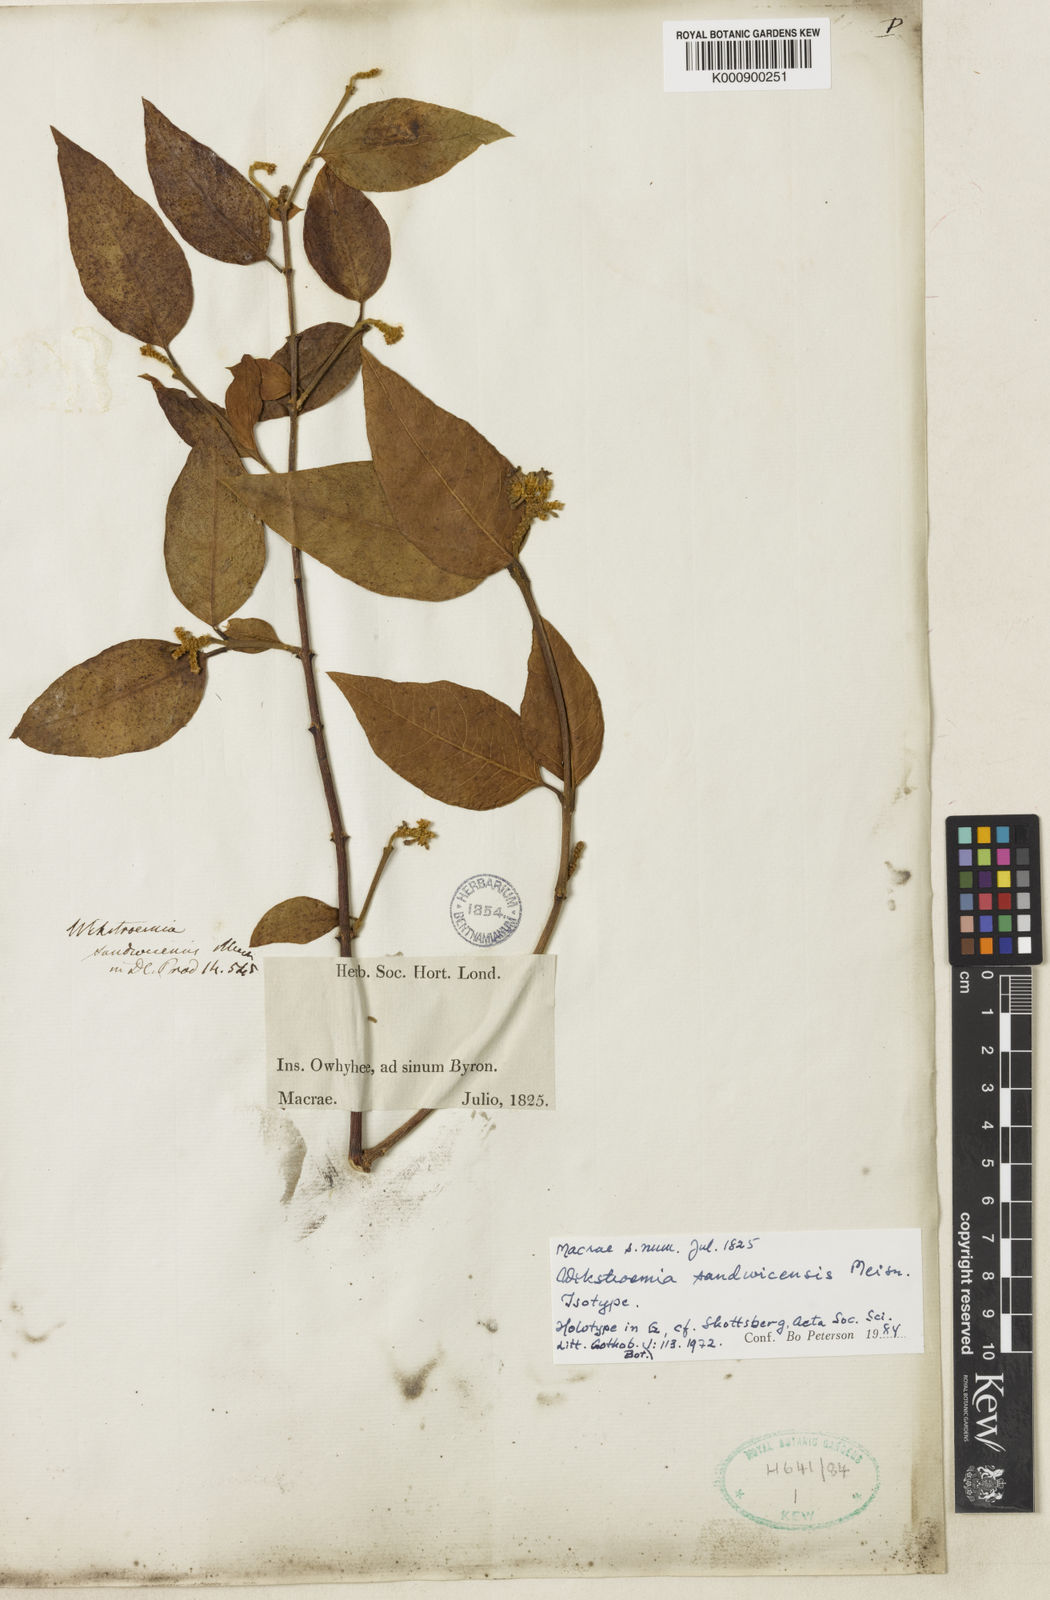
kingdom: Plantae
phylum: Tracheophyta
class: Magnoliopsida
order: Malvales
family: Thymelaeaceae
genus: Wikstroemia
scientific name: Wikstroemia sandwicensis
